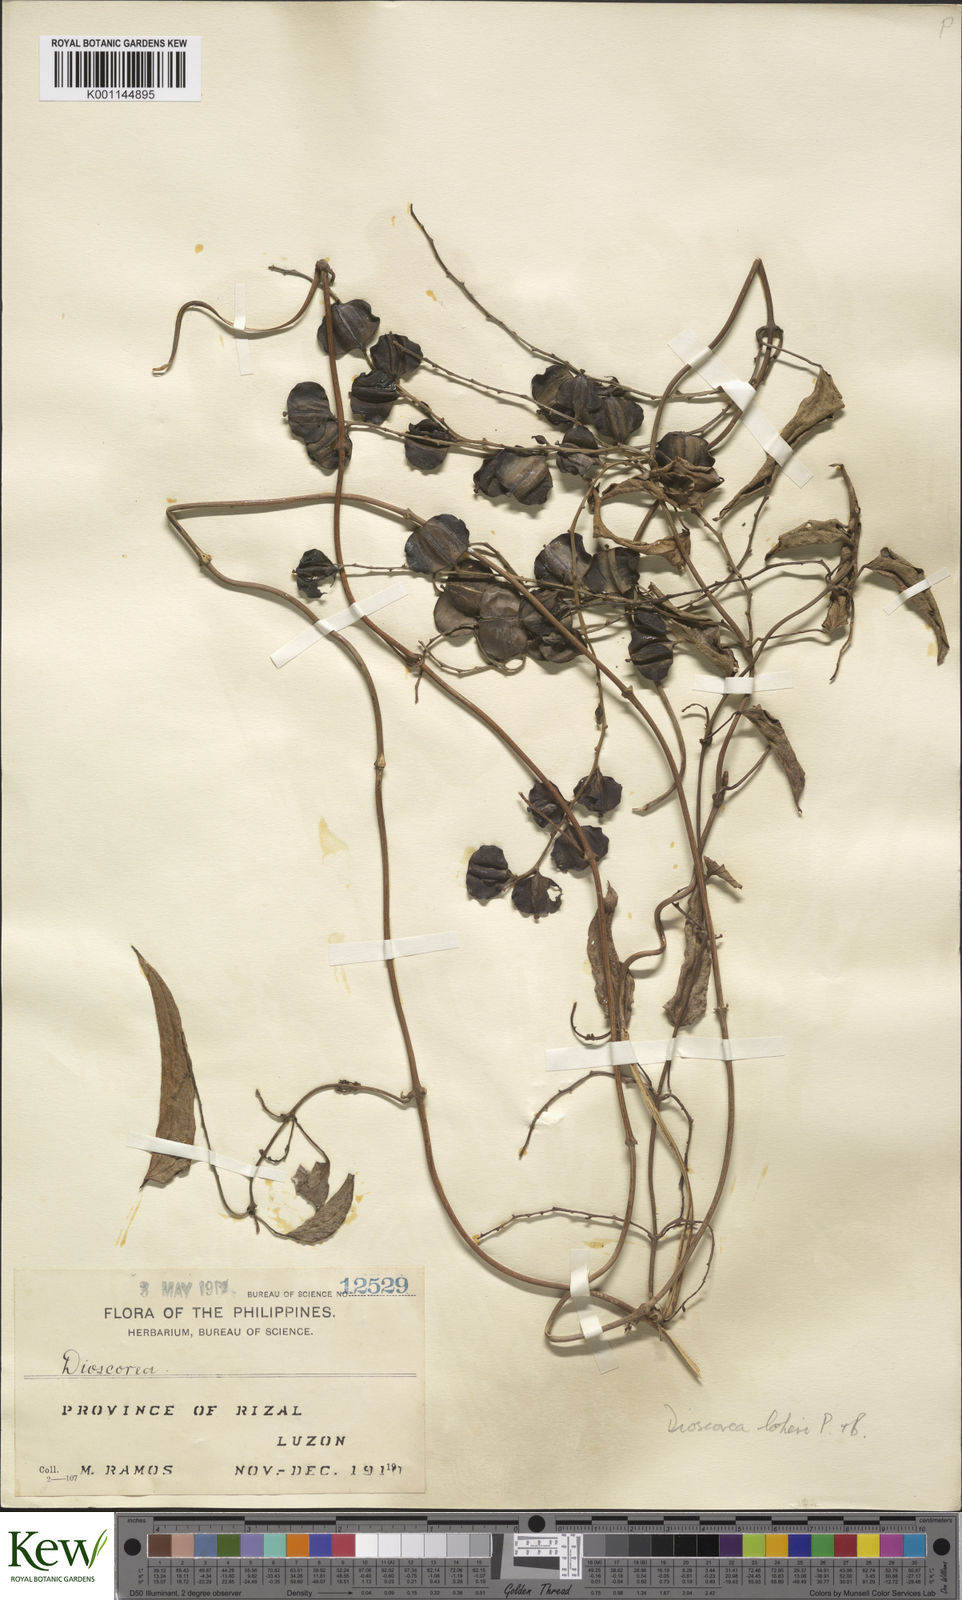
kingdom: Plantae
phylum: Tracheophyta
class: Liliopsida
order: Dioscoreales
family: Dioscoreaceae
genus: Dioscorea
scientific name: Dioscorea loheri
